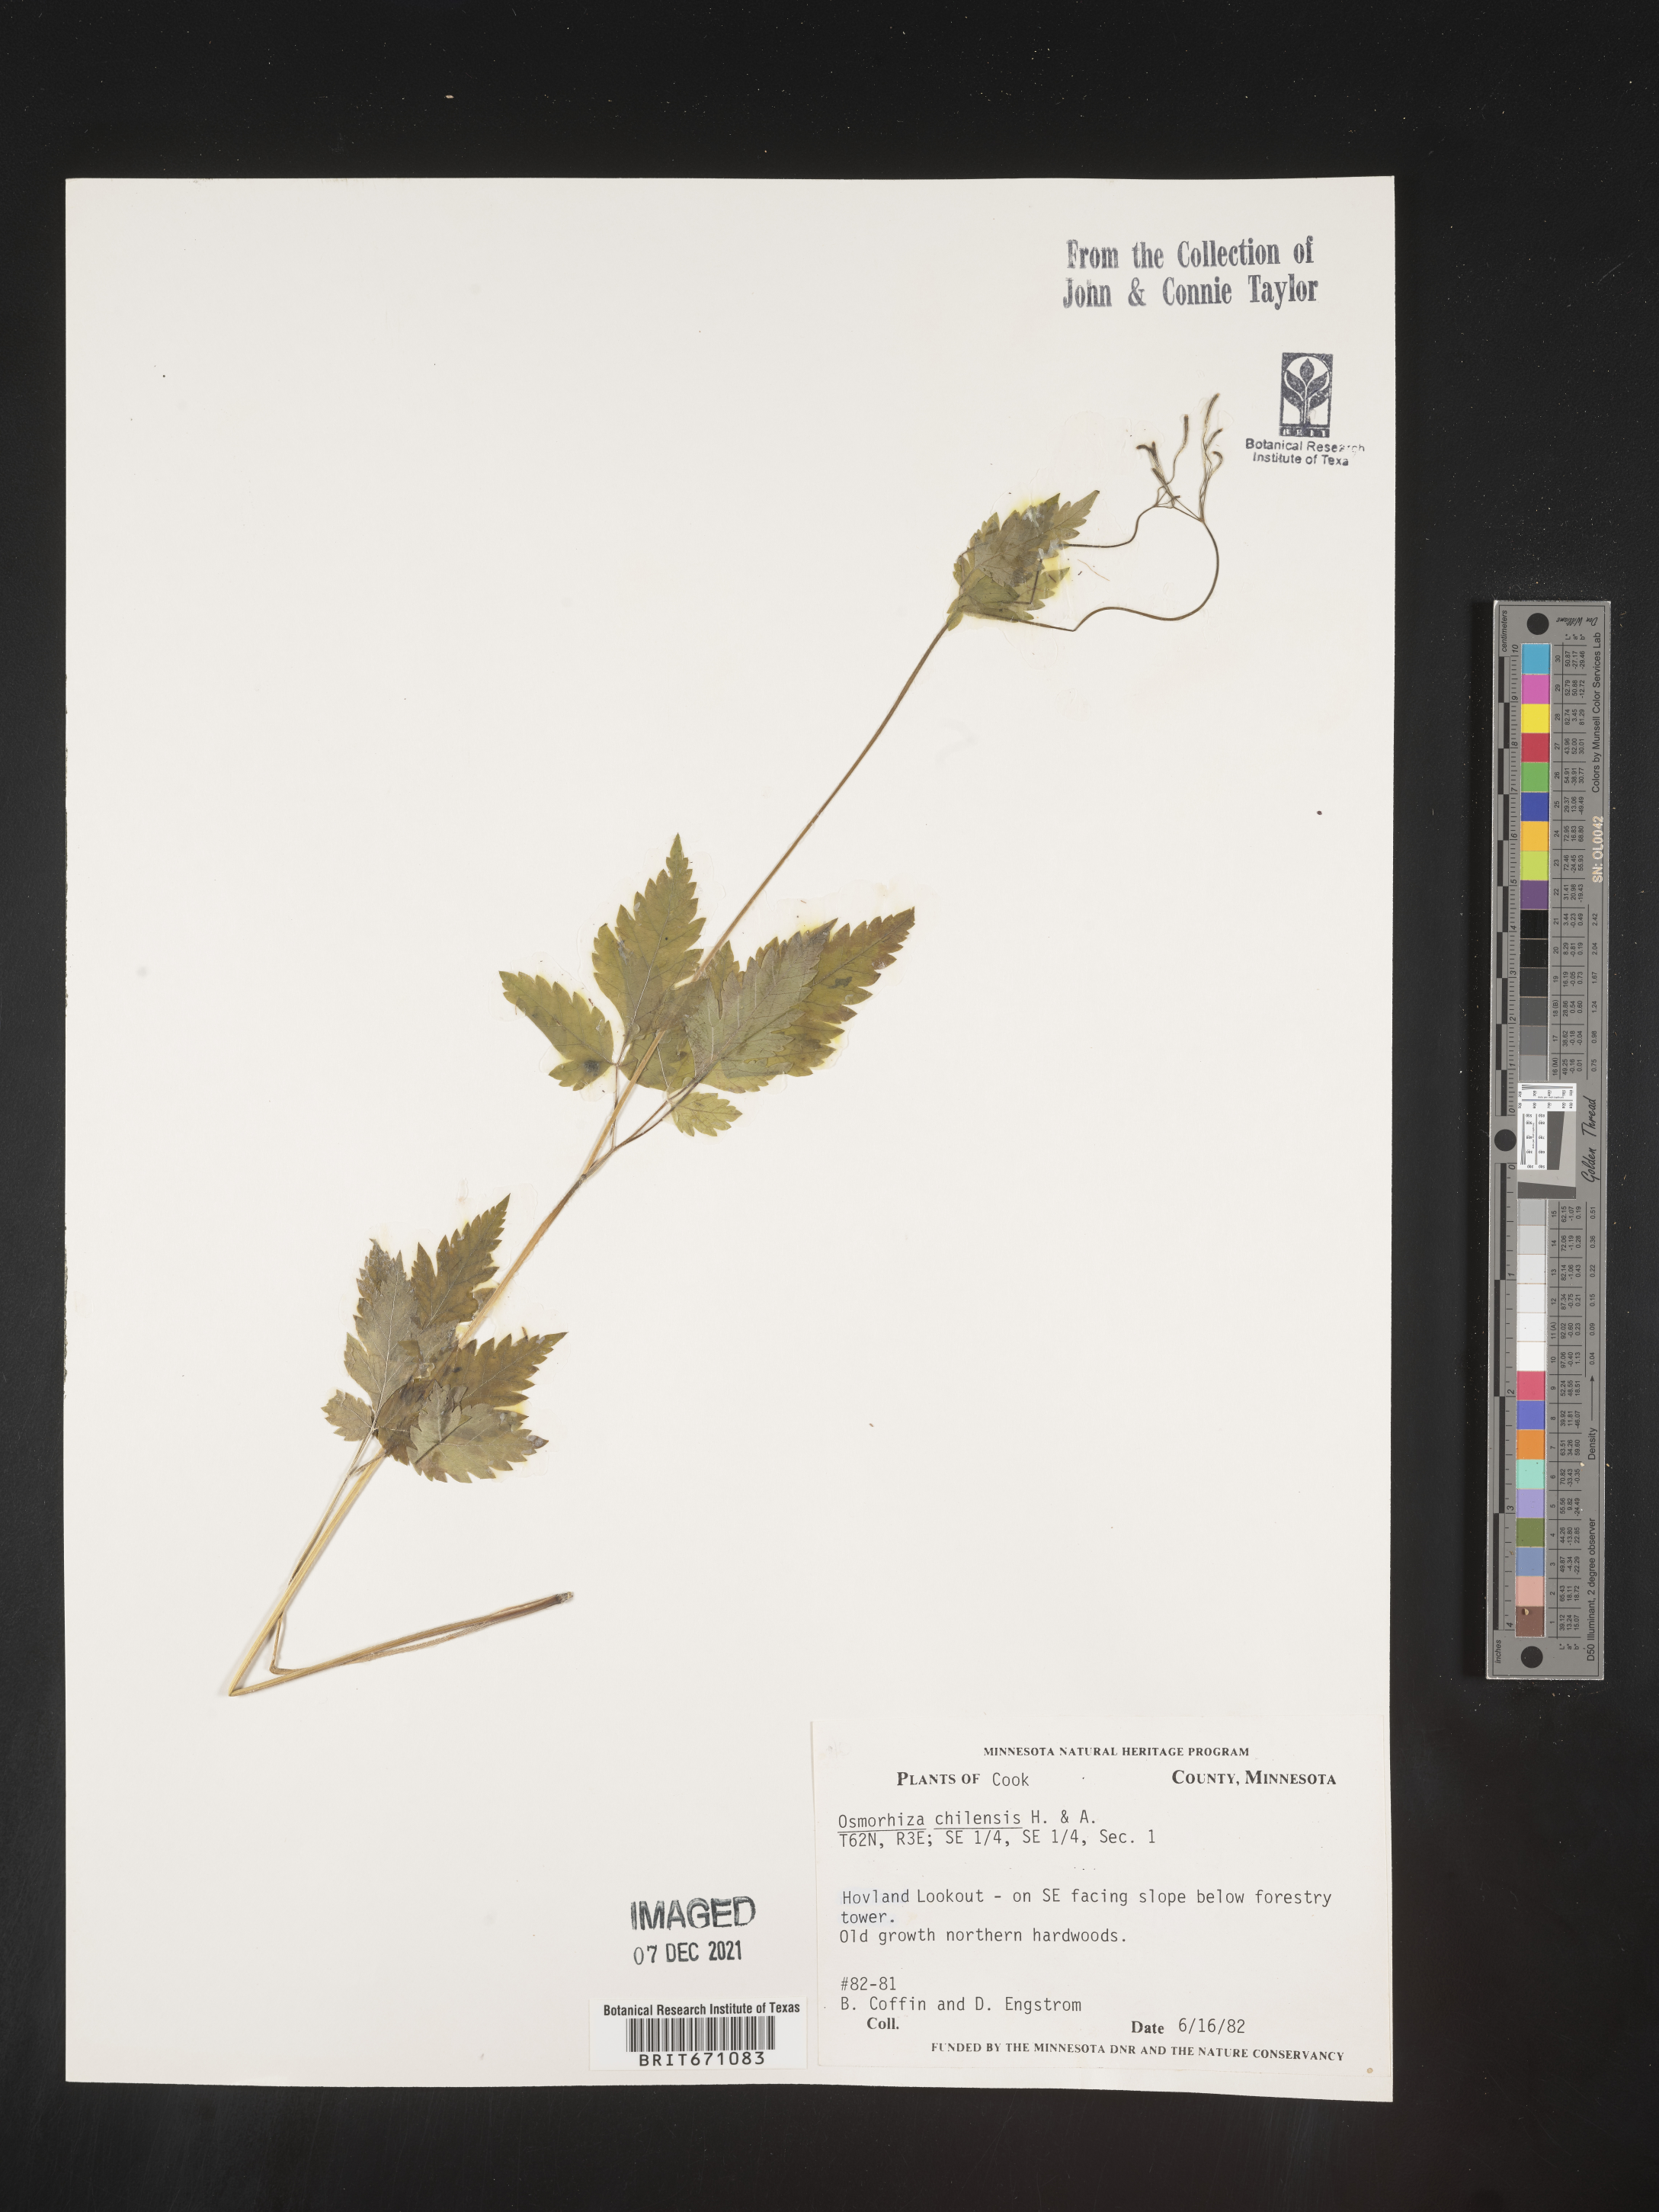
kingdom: Plantae
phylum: Tracheophyta
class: Magnoliopsida
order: Apiales
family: Apiaceae
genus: Osmorhiza
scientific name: Osmorhiza berteroi
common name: Mountain sweet cicely
